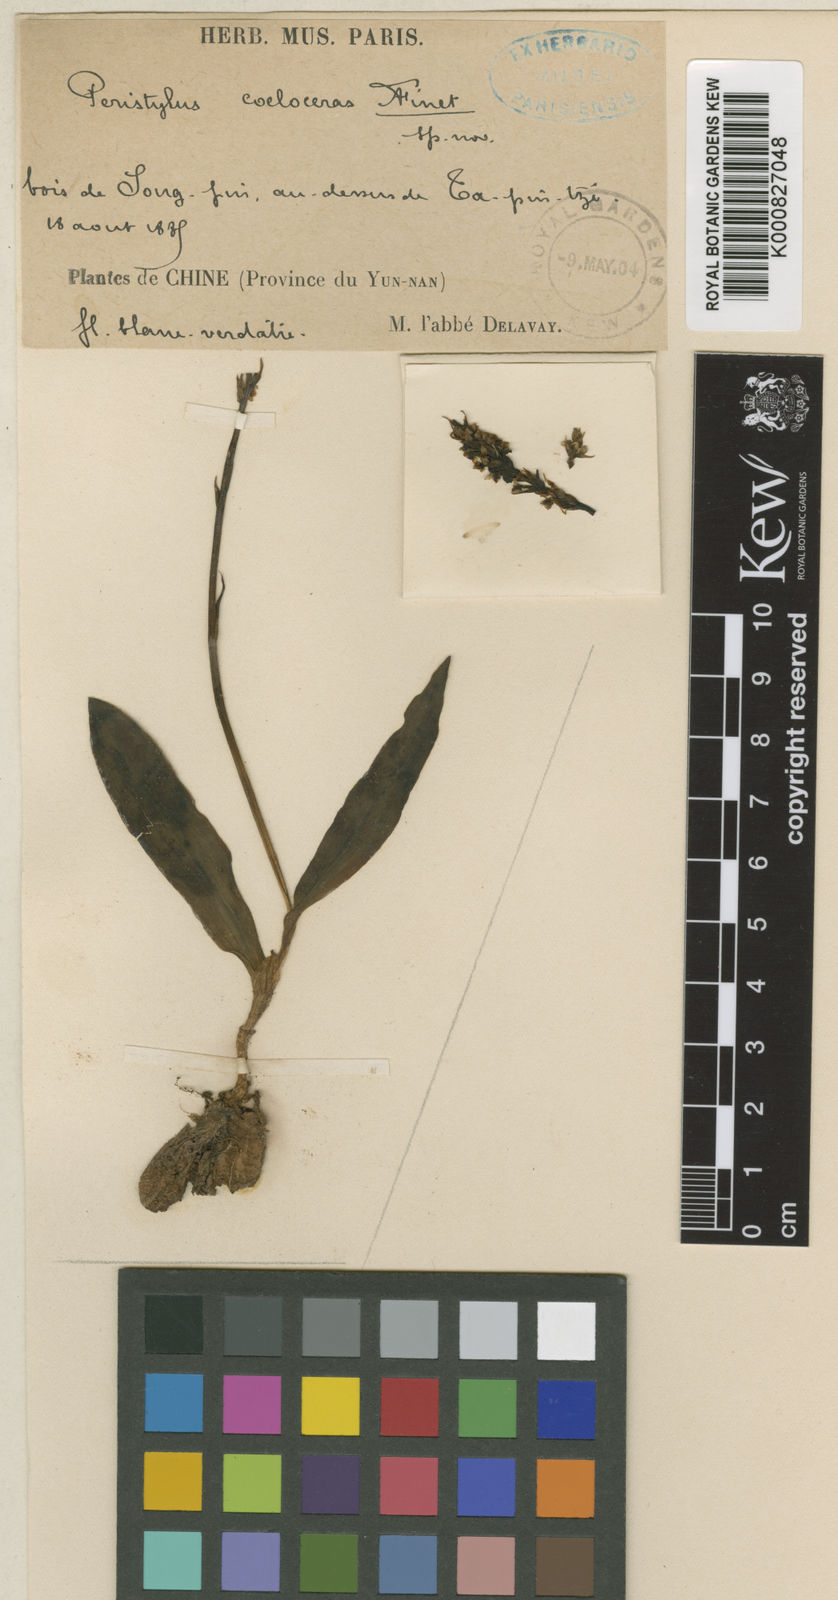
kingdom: Plantae
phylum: Tracheophyta
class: Liliopsida
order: Asparagales
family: Orchidaceae
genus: Herminium
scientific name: Herminium coeloceras
